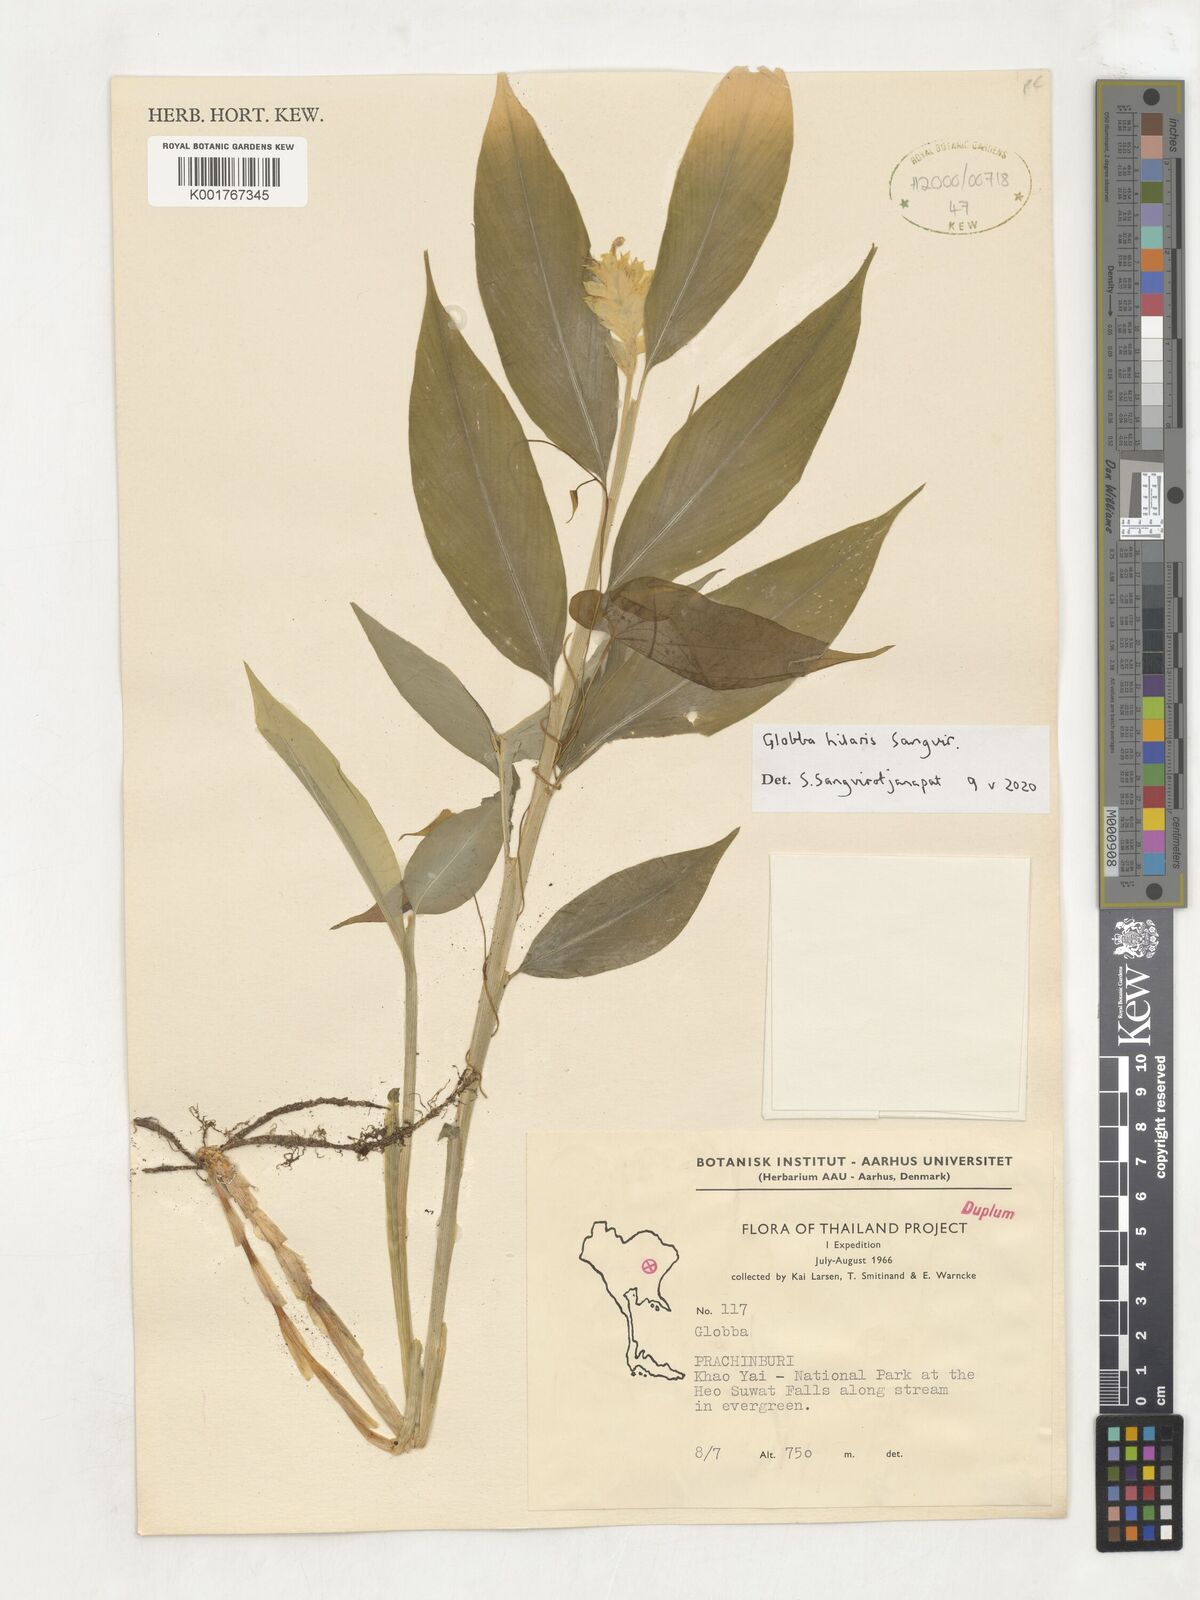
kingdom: Plantae
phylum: Tracheophyta
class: Liliopsida
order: Zingiberales
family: Zingiberaceae
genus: Globba
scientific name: Globba
